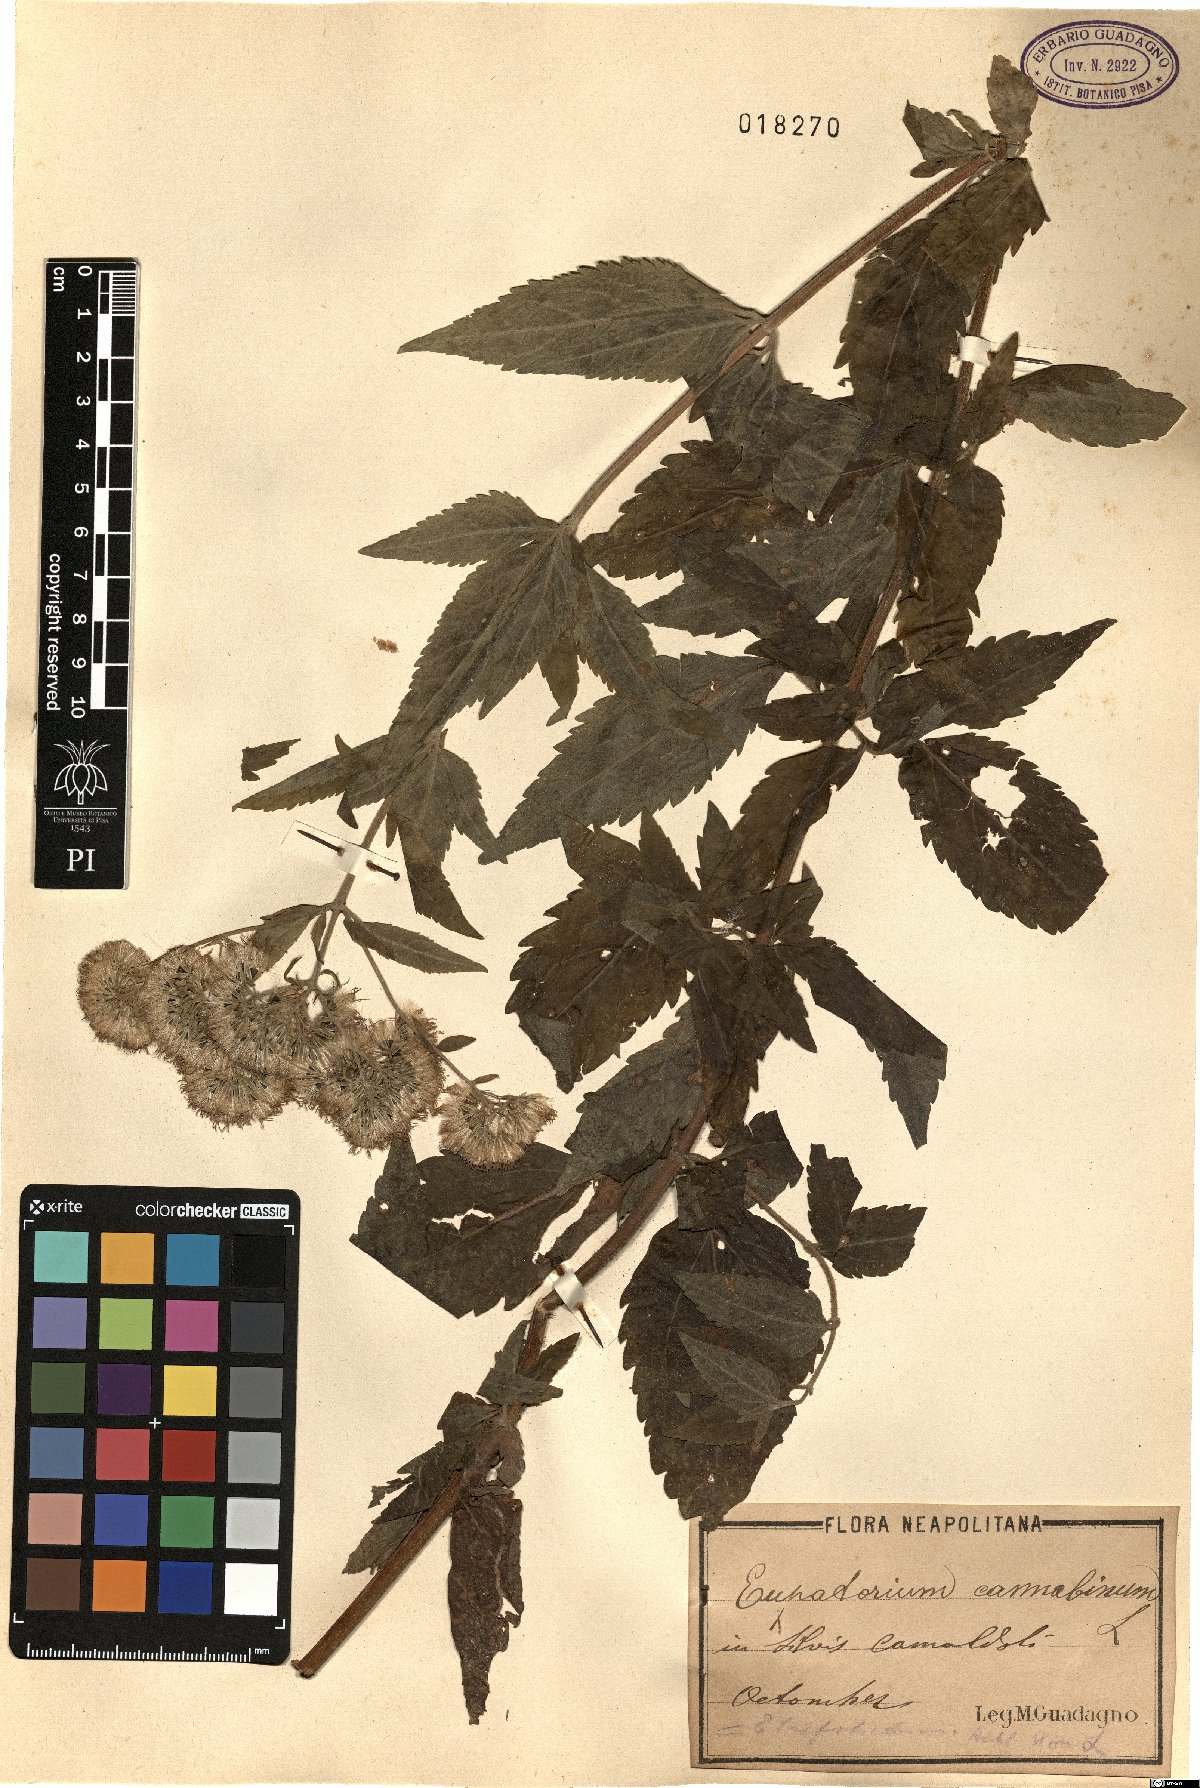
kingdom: Plantae
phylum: Tracheophyta
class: Magnoliopsida
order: Asterales
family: Asteraceae
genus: Eupatorium
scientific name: Eupatorium cannabinum
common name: Hemp-agrimony
